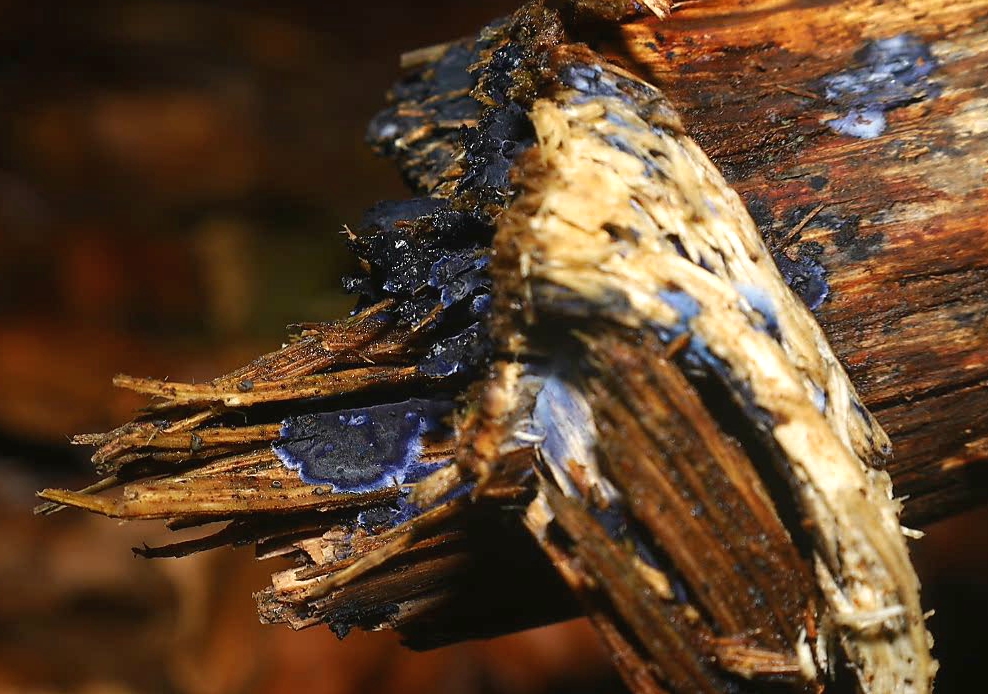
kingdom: Fungi
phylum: Basidiomycota
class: Agaricomycetes
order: Polyporales
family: Phanerochaetaceae
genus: Terana
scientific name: Terana caerulea
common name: indigoskorpe
